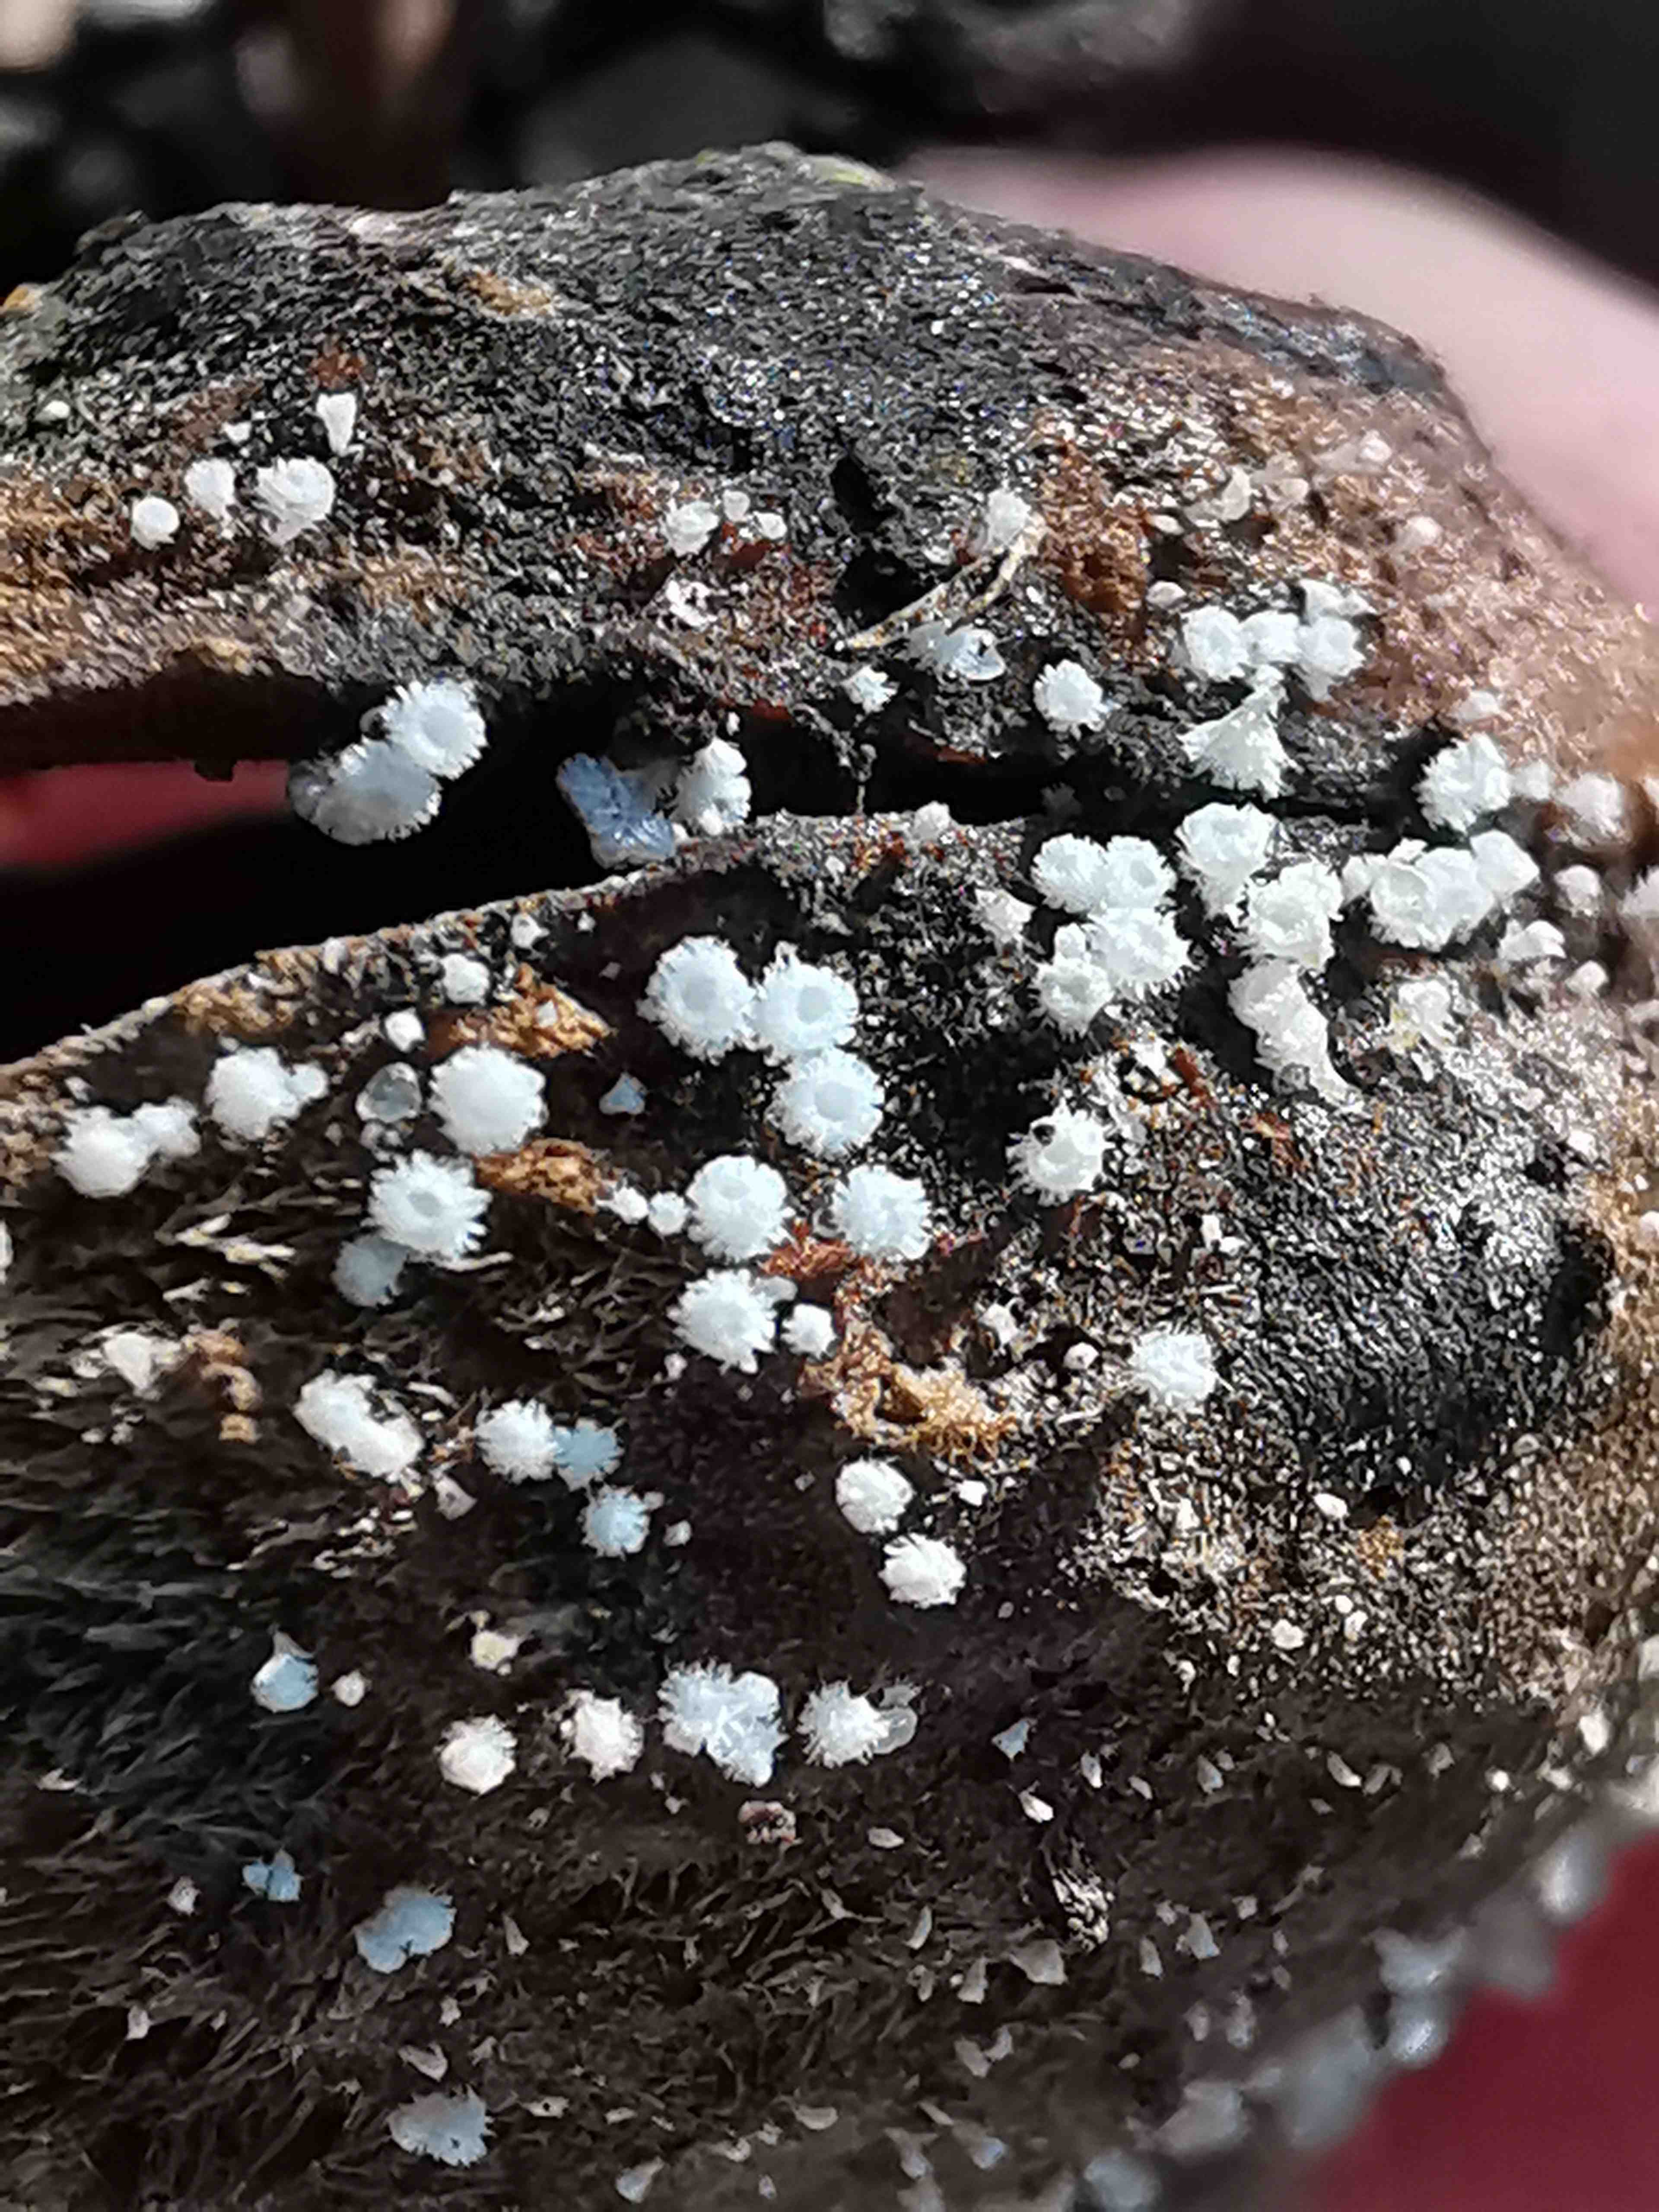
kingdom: Fungi
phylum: Ascomycota
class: Leotiomycetes
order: Helotiales
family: Lachnaceae
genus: Lachnum
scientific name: Lachnum virgineum
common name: jomfru-frynseskive
